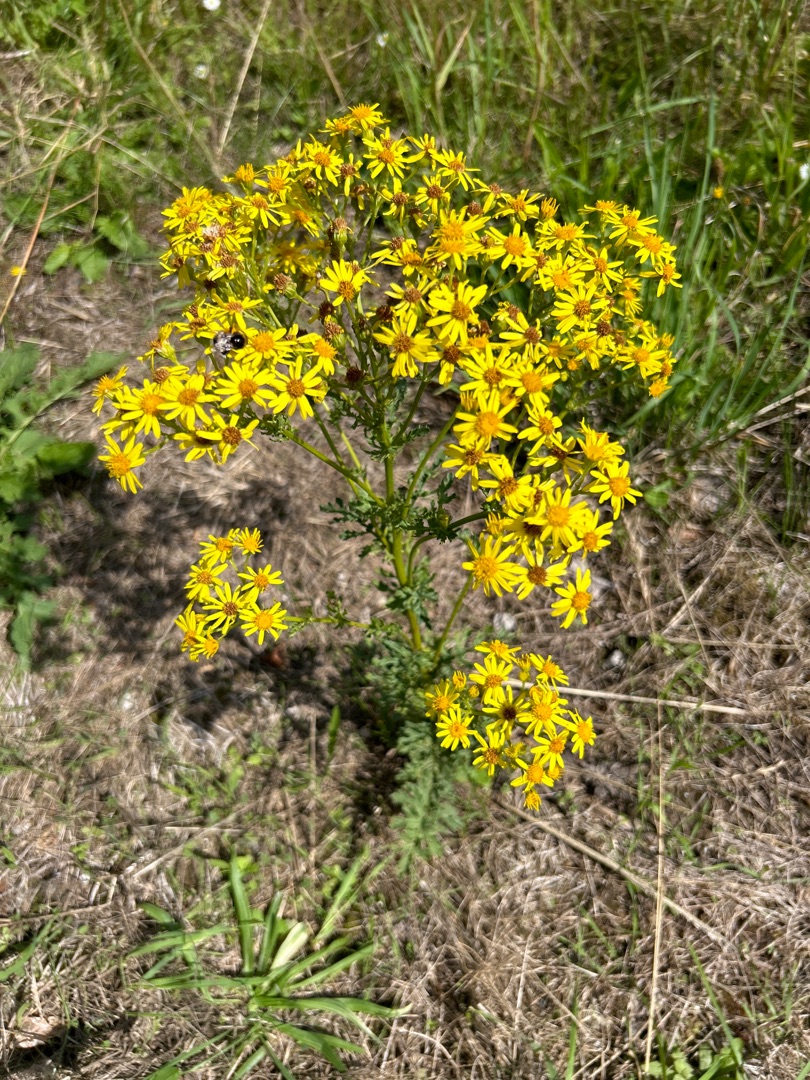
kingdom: Plantae
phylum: Tracheophyta
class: Magnoliopsida
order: Asterales
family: Asteraceae
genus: Jacobaea
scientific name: Jacobaea vulgaris
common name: Eng-brandbæger
